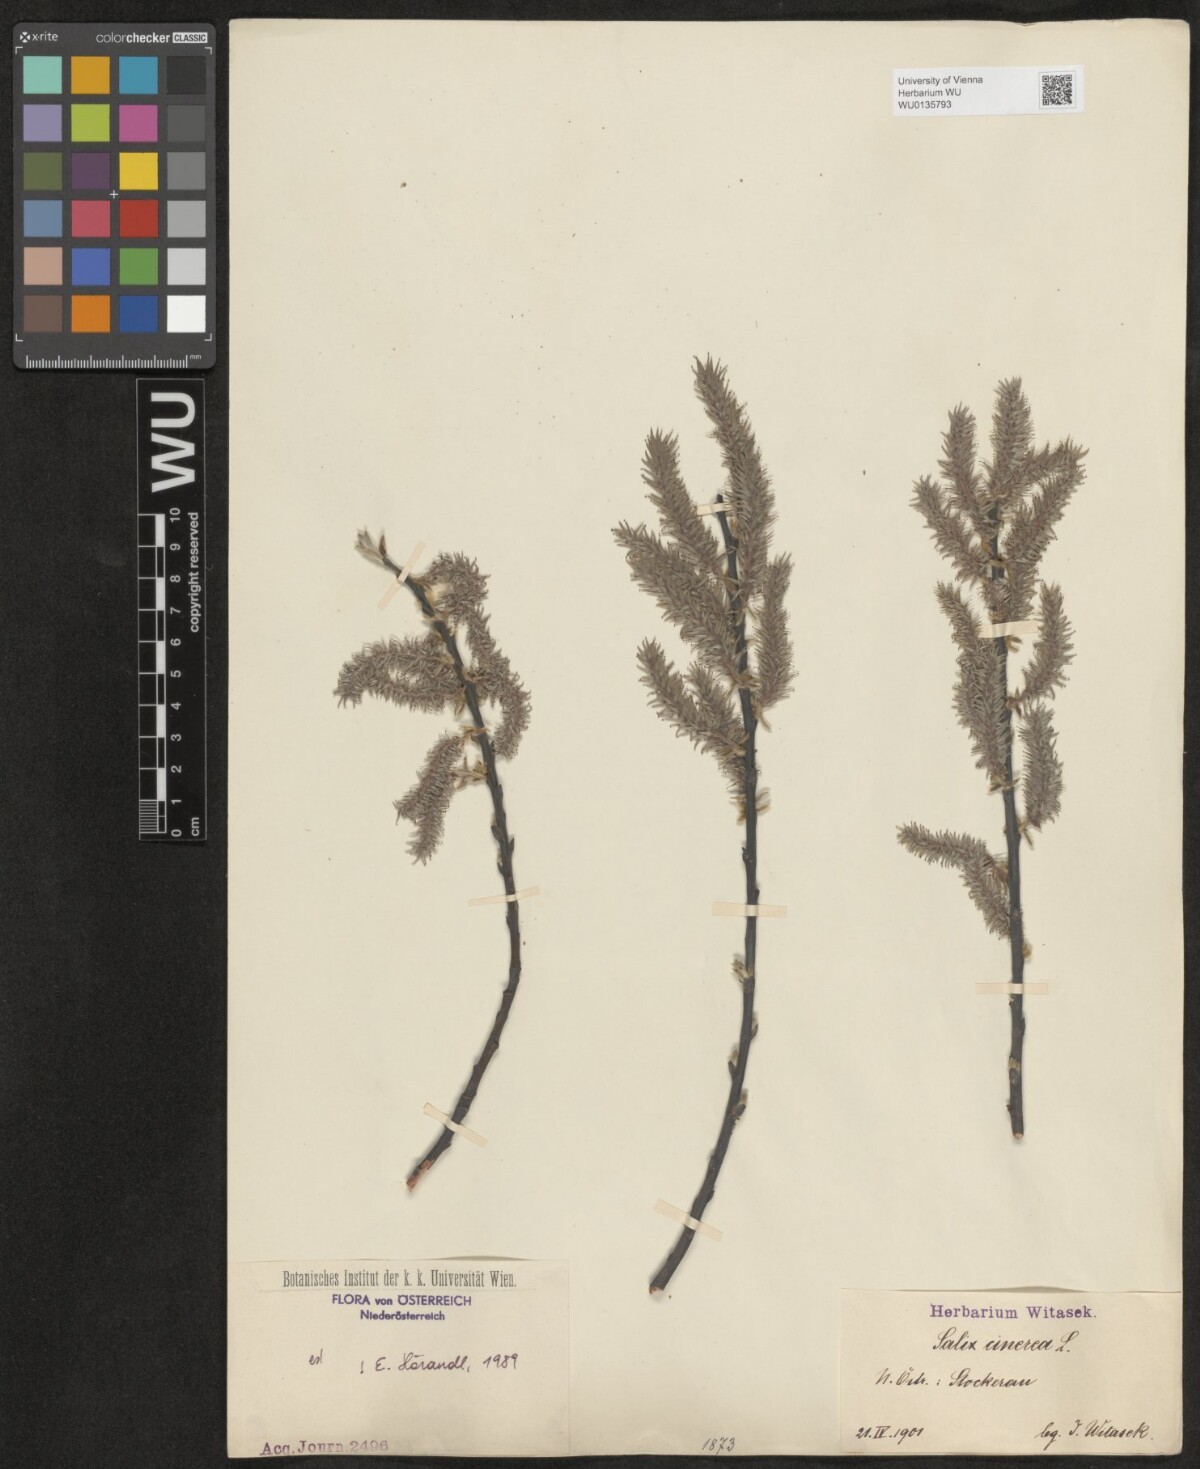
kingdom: Plantae
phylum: Tracheophyta
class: Magnoliopsida
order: Malpighiales
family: Salicaceae
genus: Salix
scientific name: Salix cinerea
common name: Common sallow
